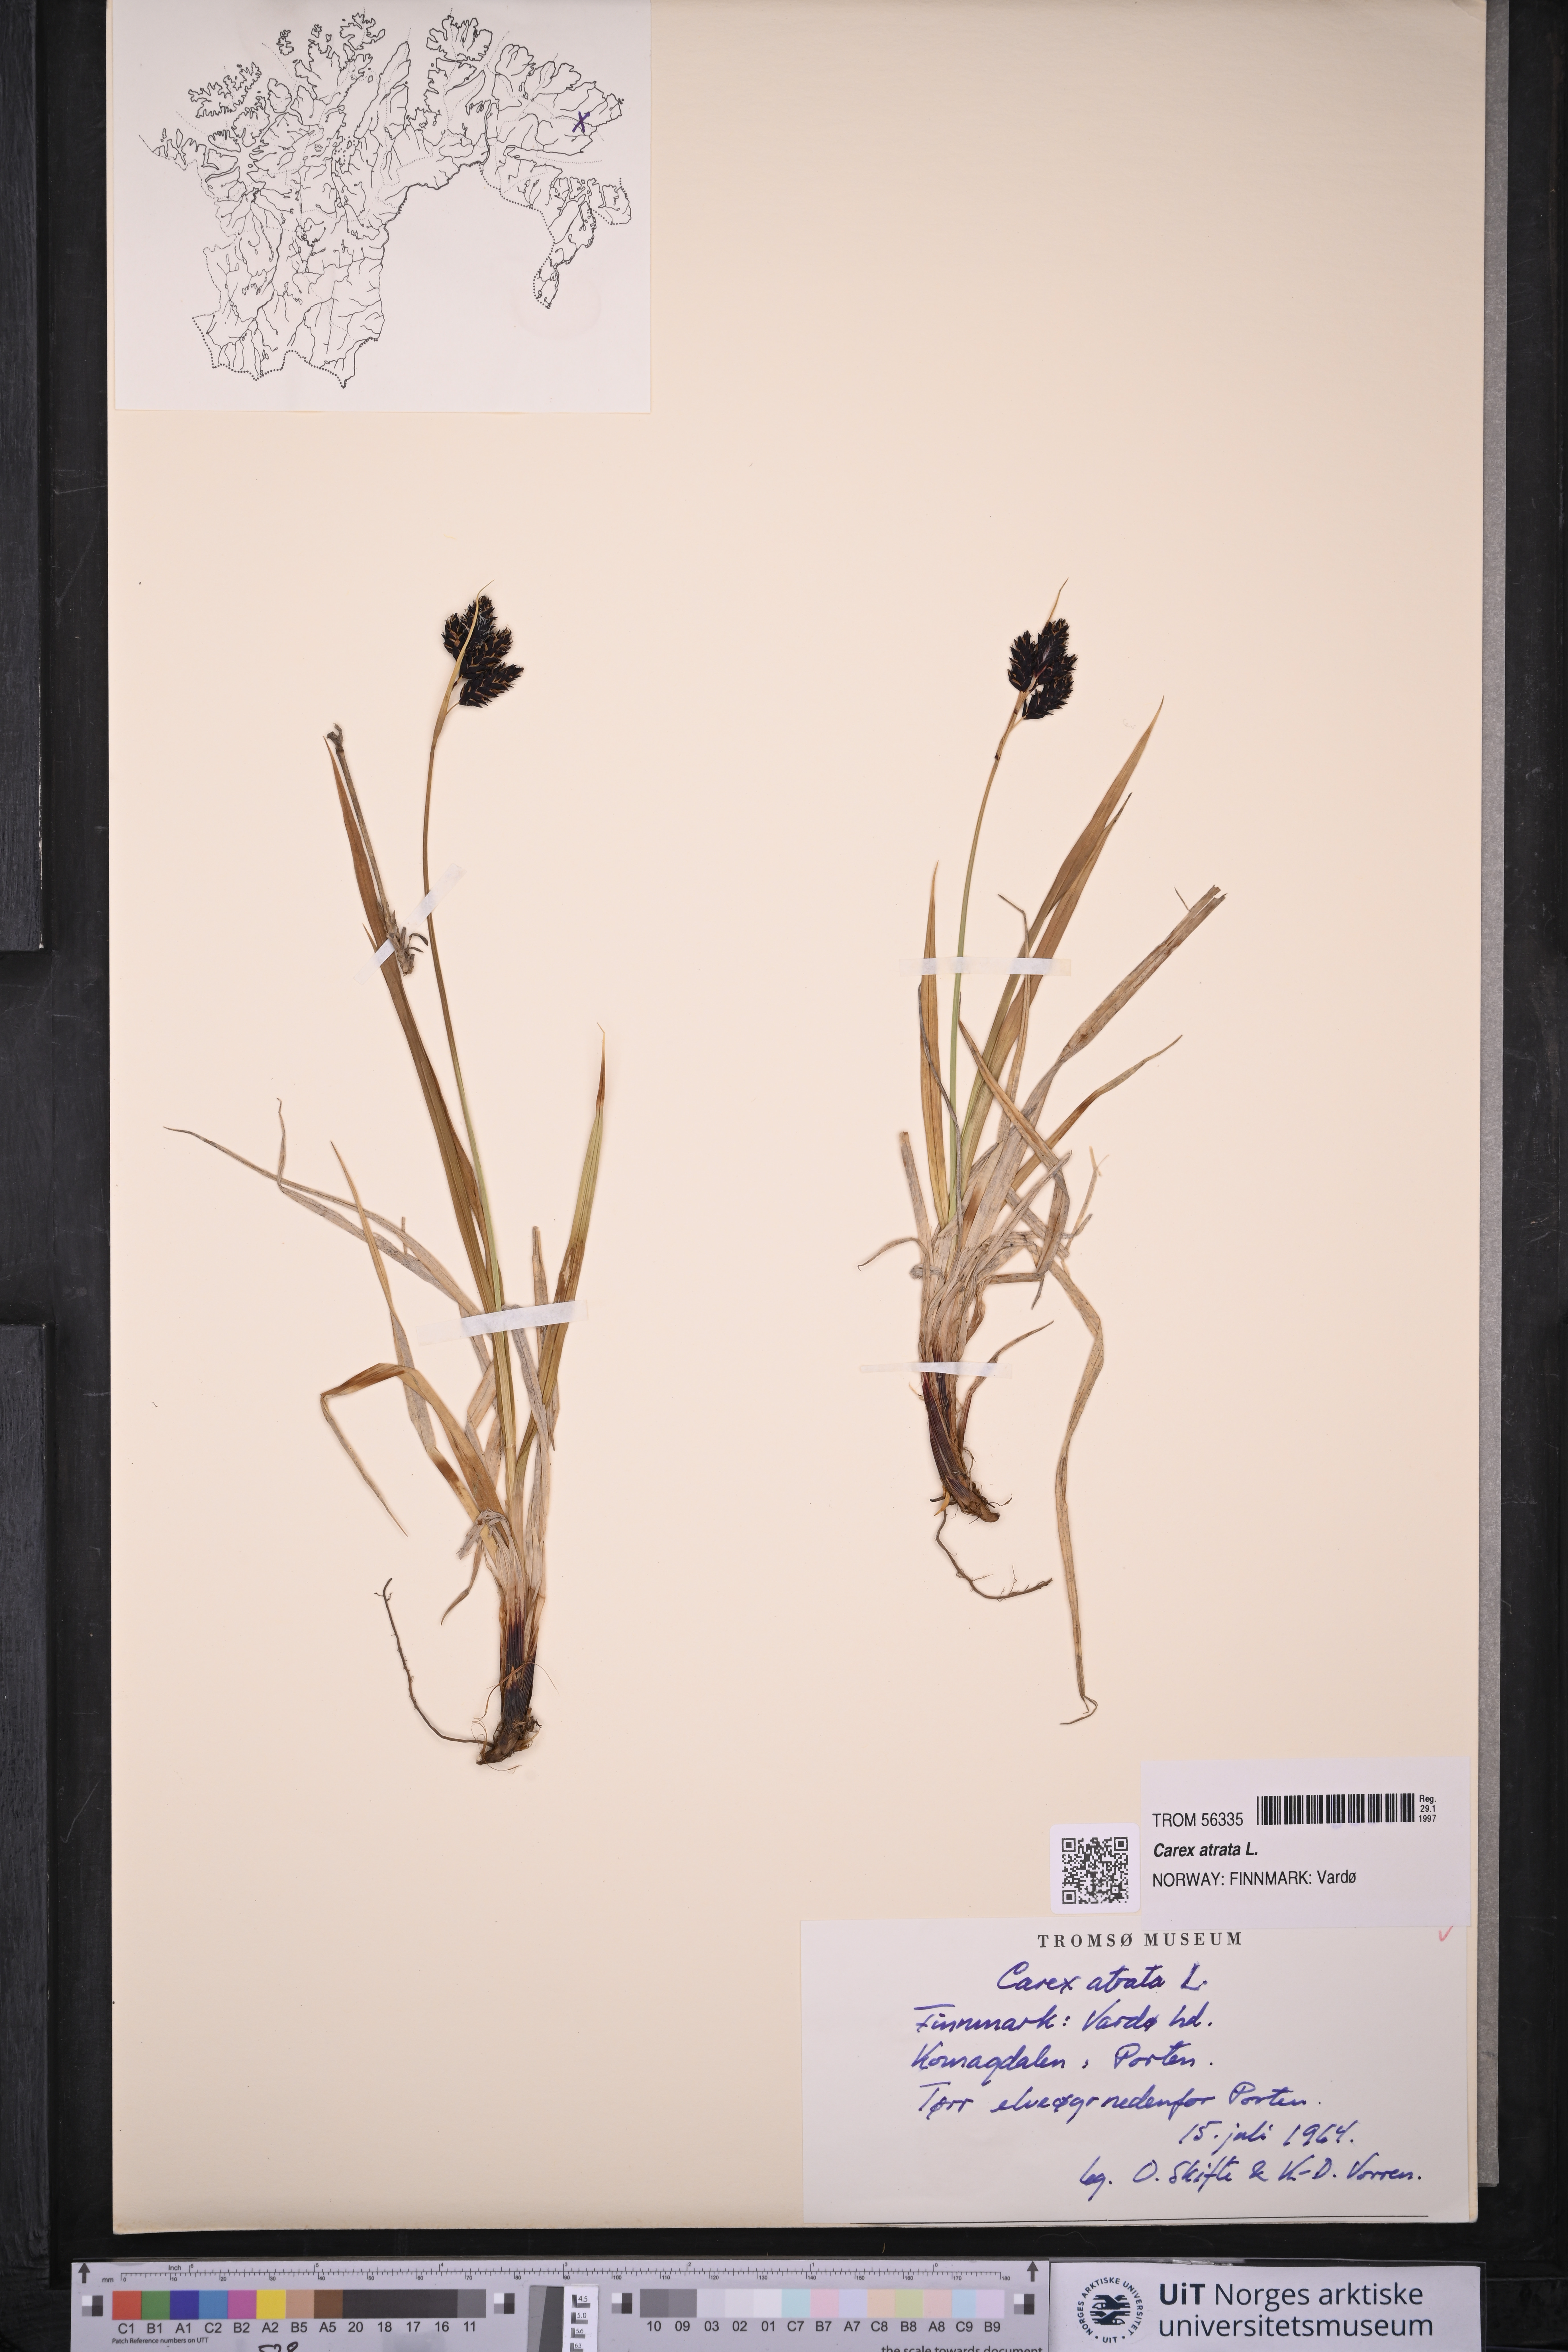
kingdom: Plantae
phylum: Tracheophyta
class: Liliopsida
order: Poales
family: Cyperaceae
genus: Carex
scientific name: Carex atrata
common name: Black alpine sedge
